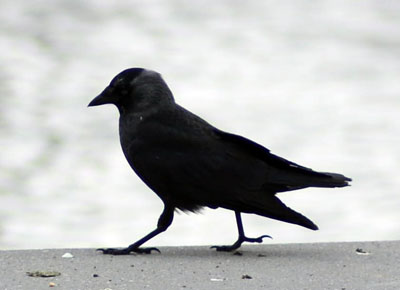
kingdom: Animalia
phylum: Chordata
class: Aves
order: Passeriformes
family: Corvidae
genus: Coloeus
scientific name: Coloeus monedula
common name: Western jackdaw
